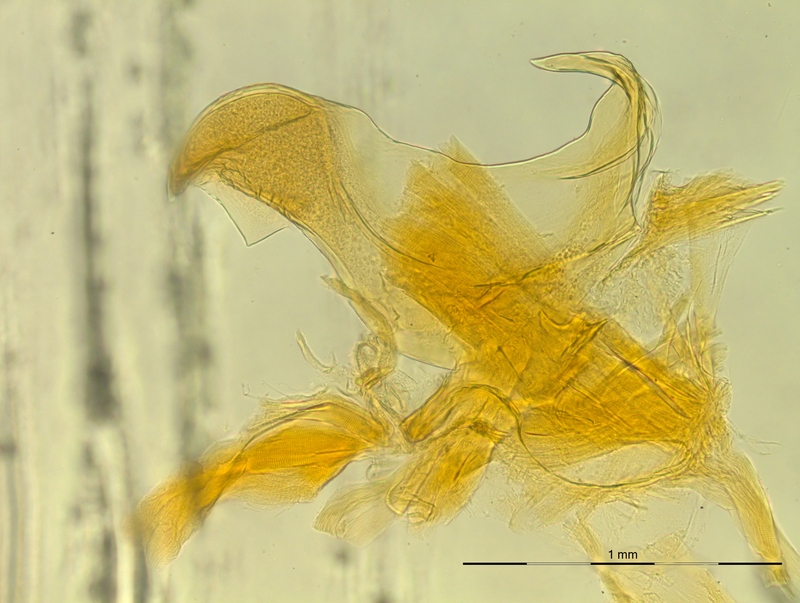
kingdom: Animalia
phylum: Arthropoda
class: Diplopoda
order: Chordeumatida
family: Craspedosomatidae
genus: Rhymogona
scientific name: Rhymogona montivaga
